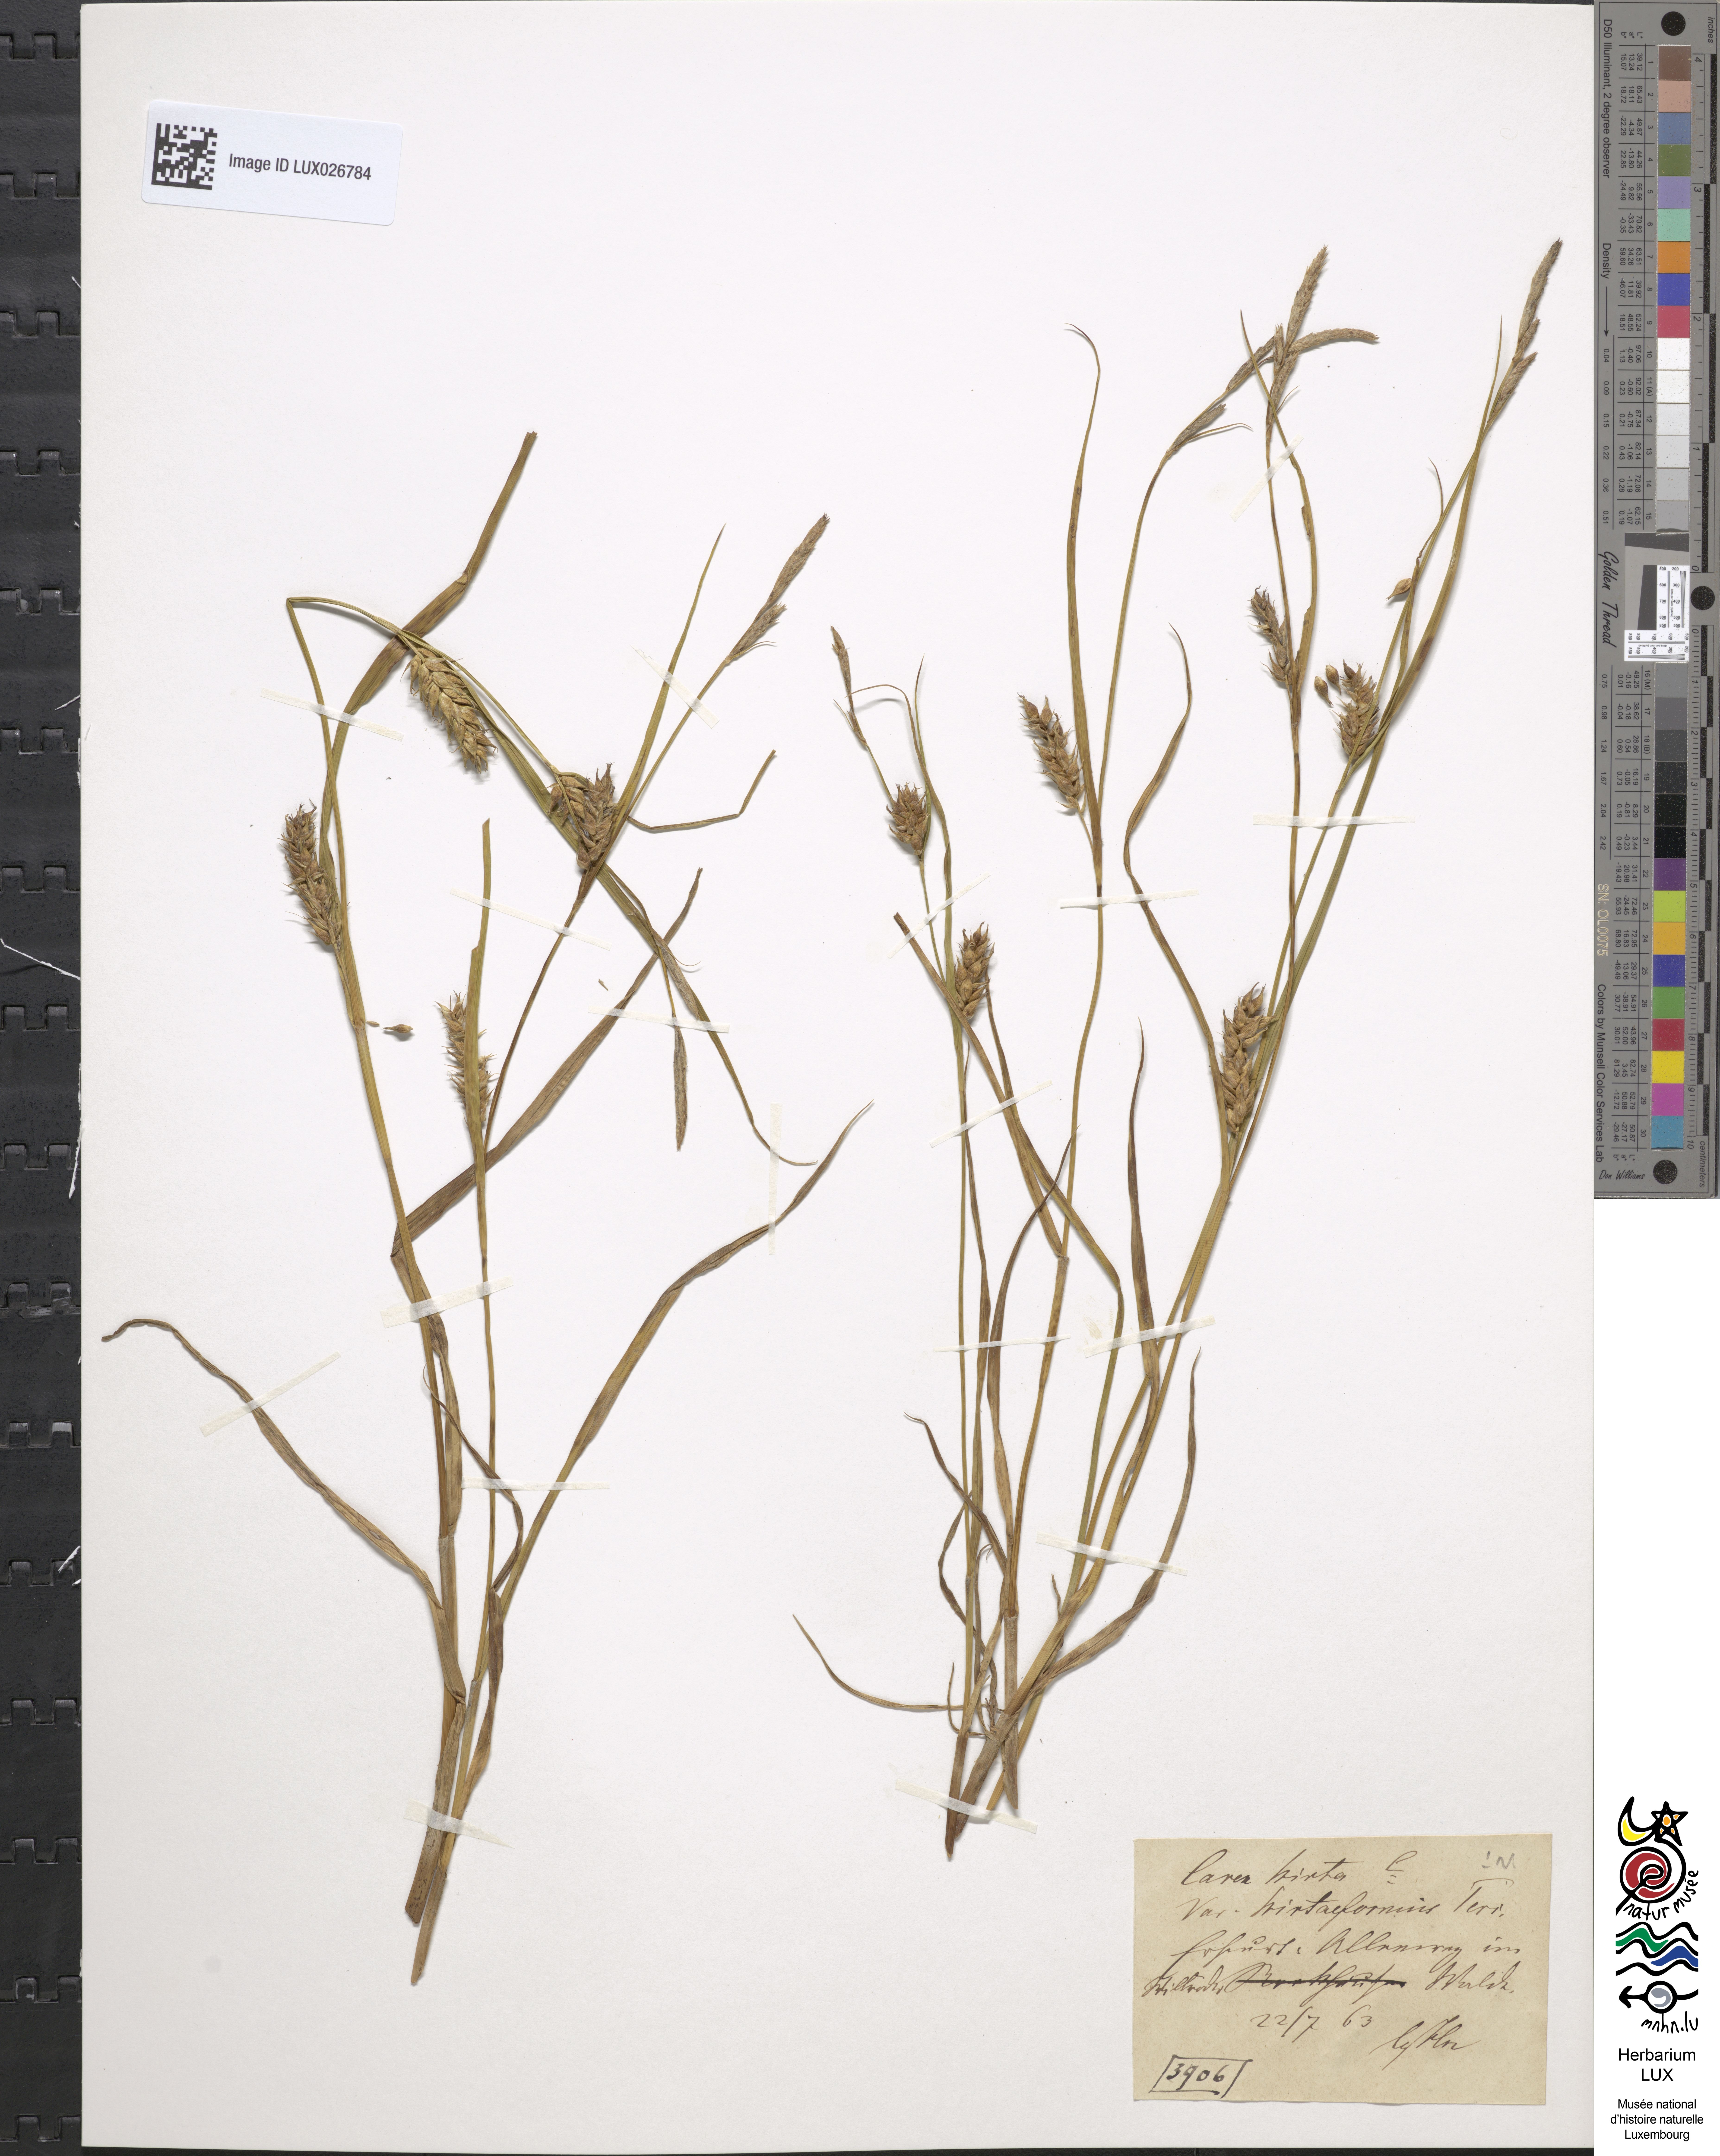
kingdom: Plantae
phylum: Tracheophyta
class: Liliopsida
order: Poales
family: Cyperaceae
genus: Carex
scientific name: Carex hirta
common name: Hairy sedge
